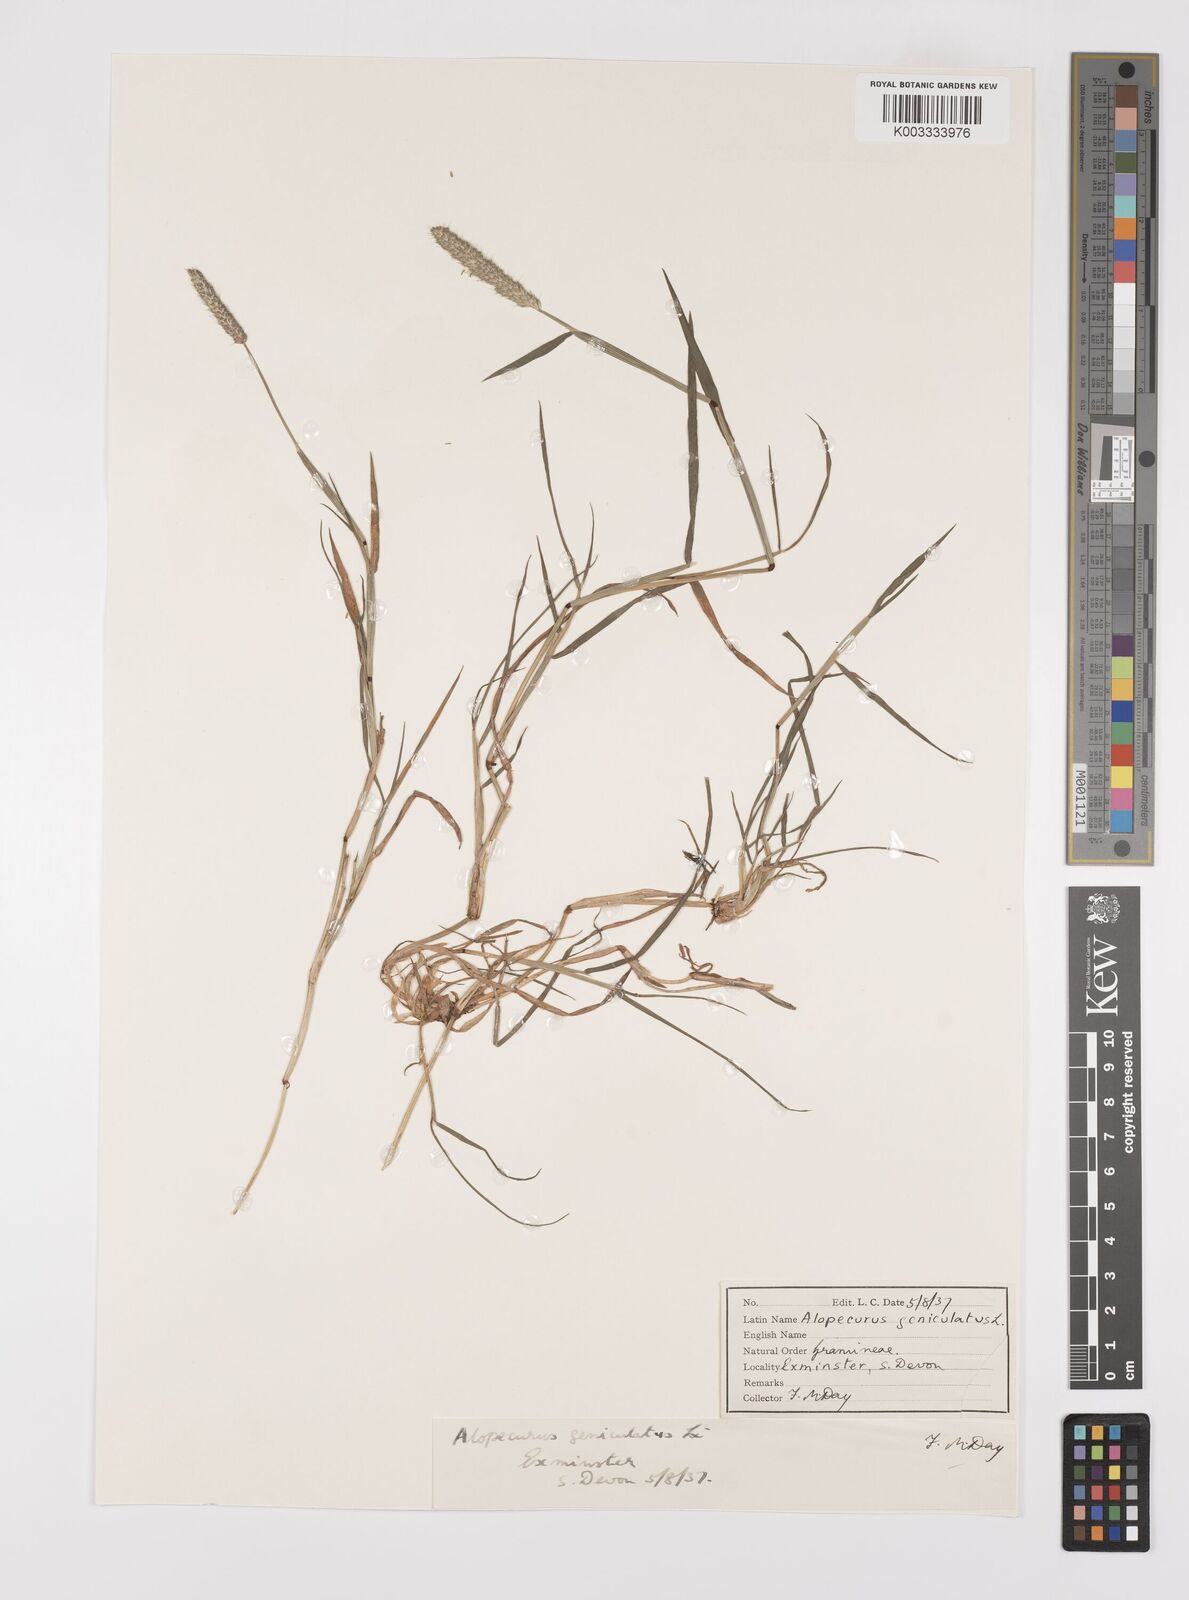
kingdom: Plantae
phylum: Tracheophyta
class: Liliopsida
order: Poales
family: Poaceae
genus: Alopecurus
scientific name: Alopecurus geniculatus
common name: Water foxtail
